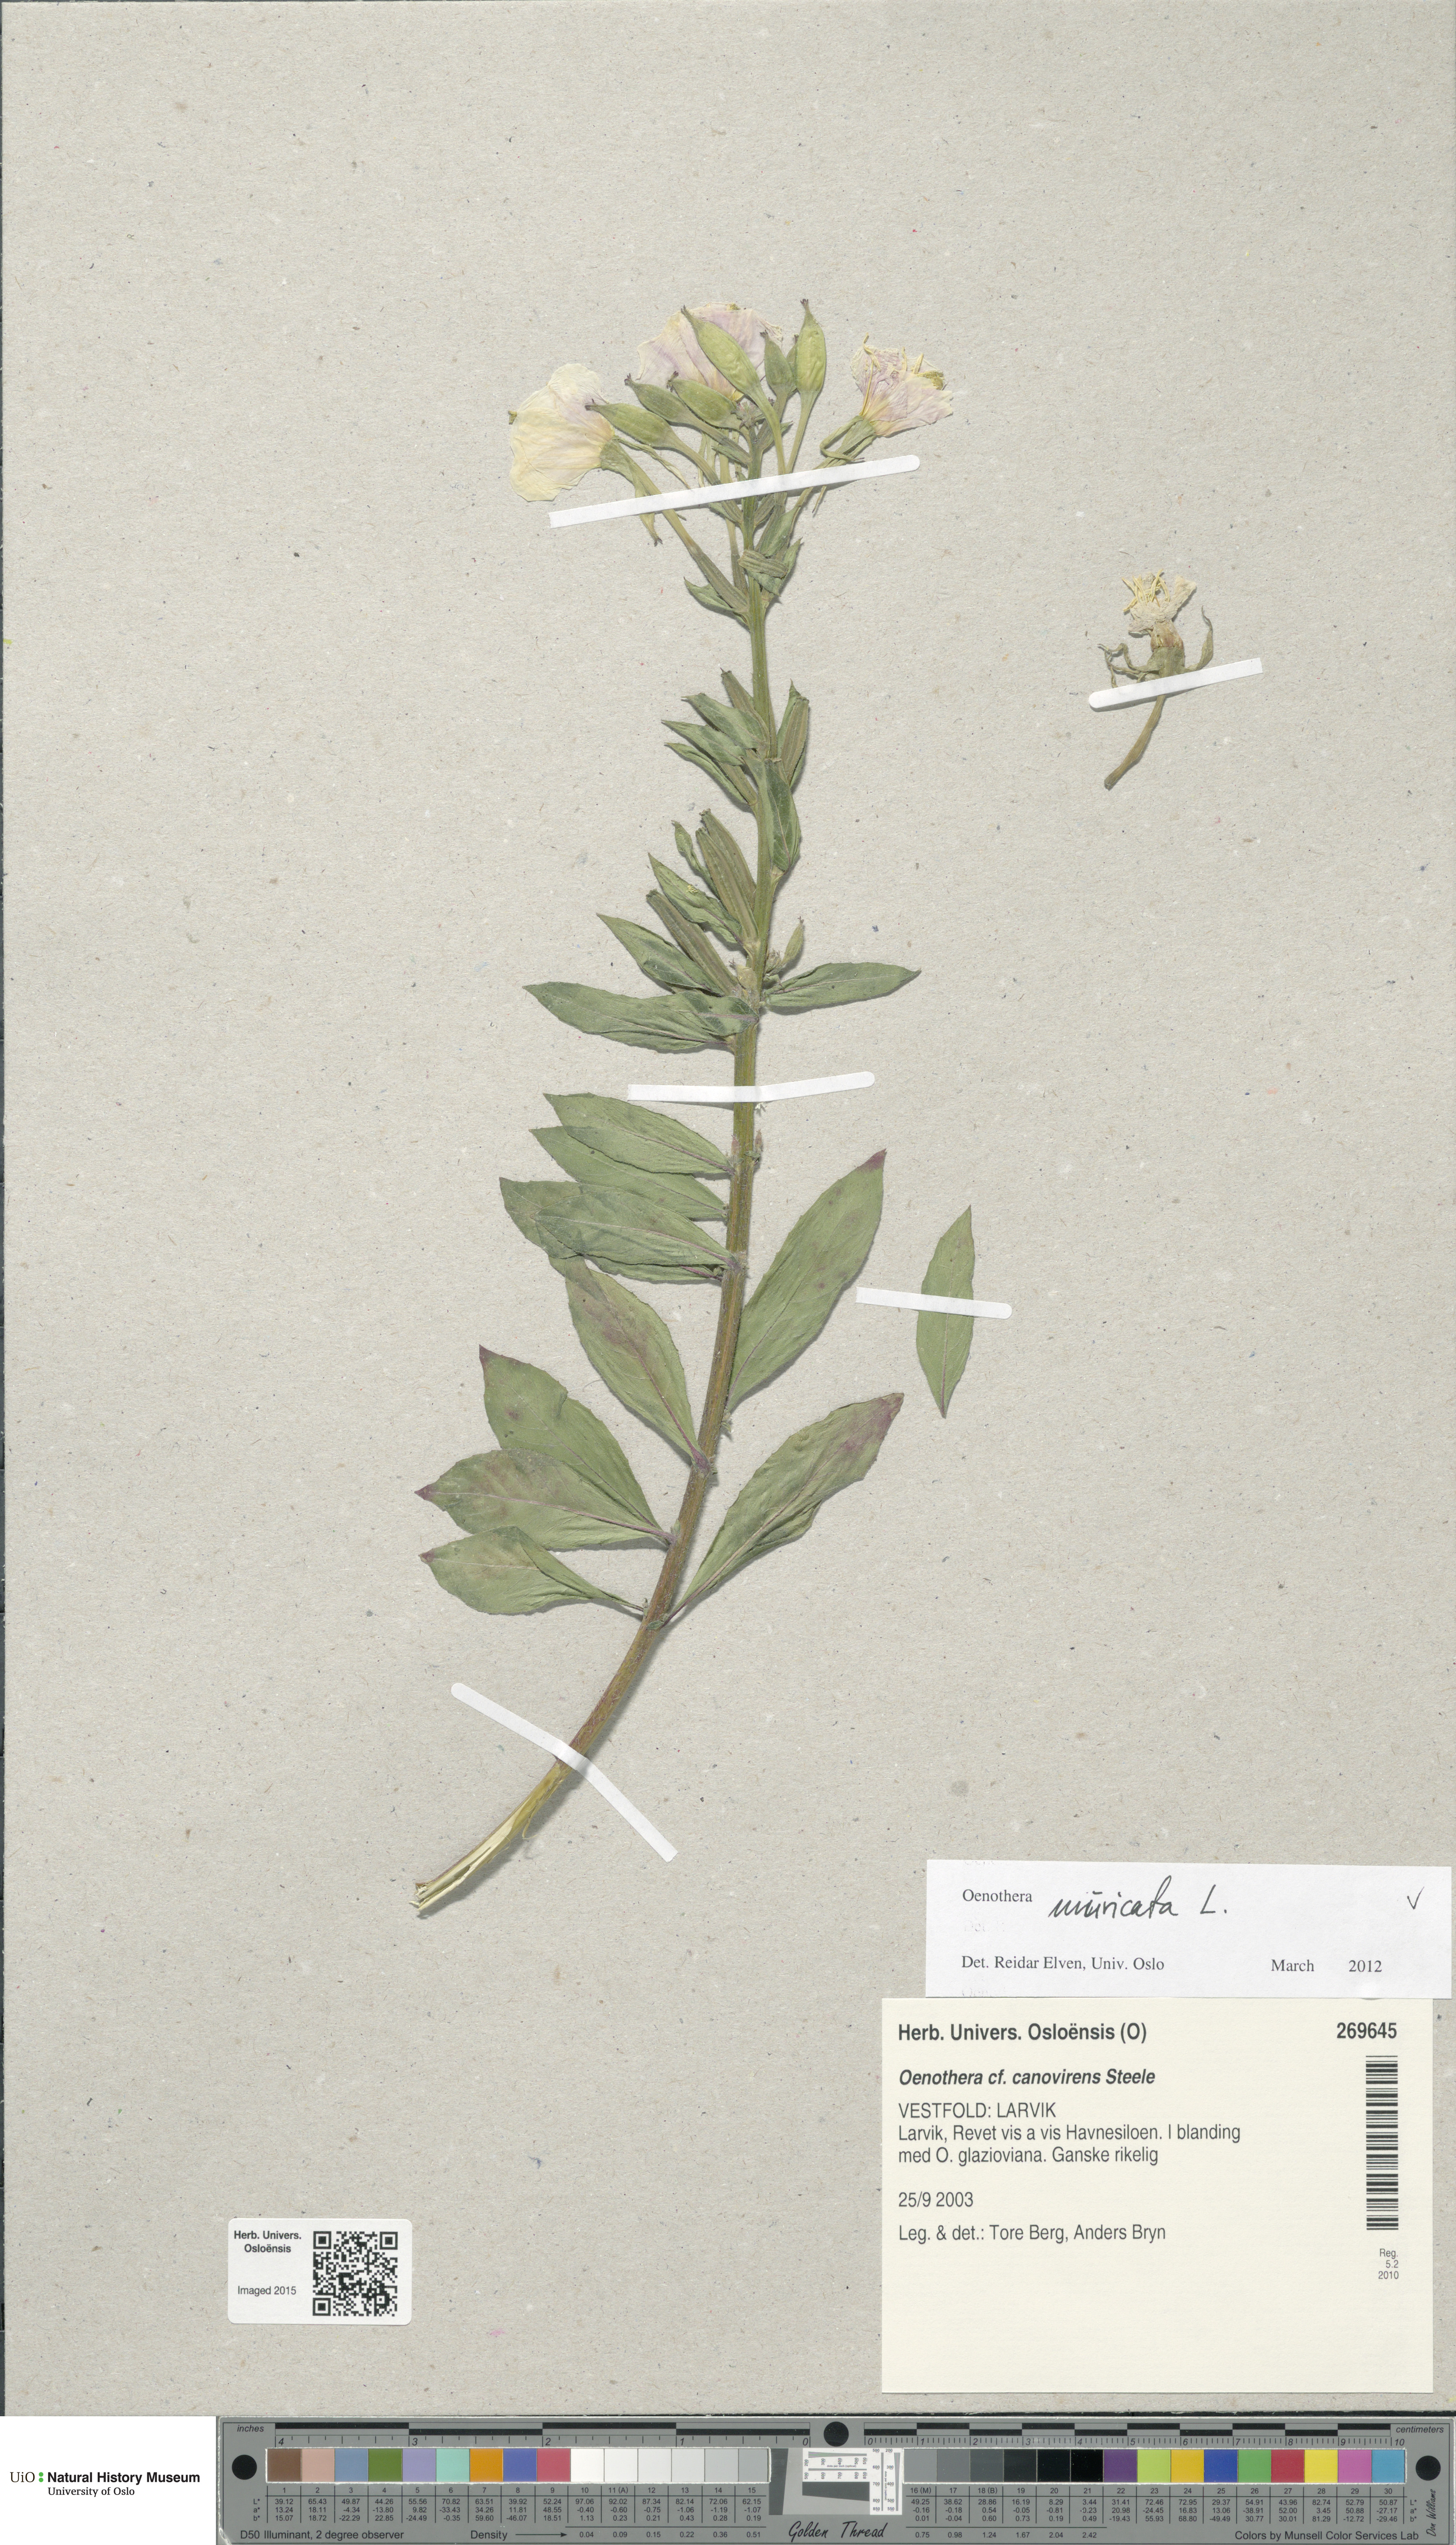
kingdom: Plantae
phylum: Tracheophyta
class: Magnoliopsida
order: Myrtales
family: Onagraceae
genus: Oenothera
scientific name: Oenothera biennis
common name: Common evening-primrose
